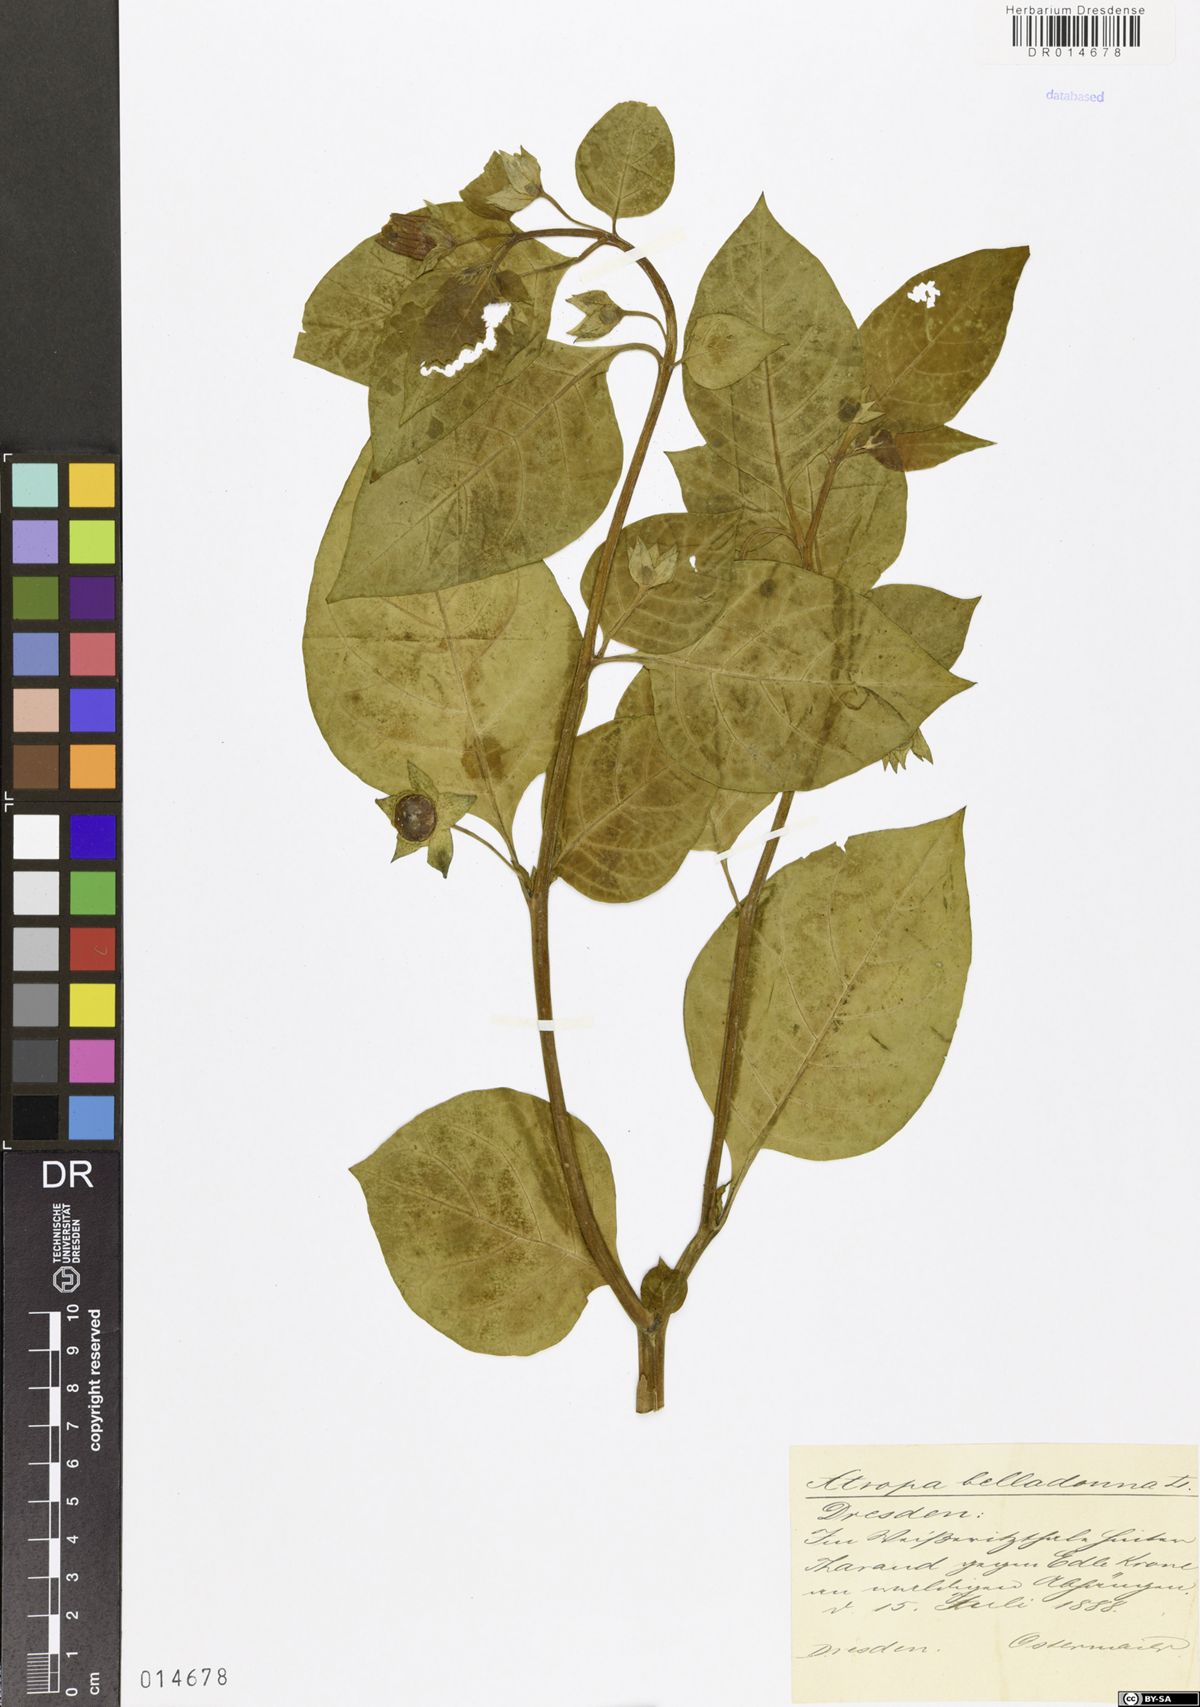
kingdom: Plantae
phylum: Tracheophyta
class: Magnoliopsida
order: Solanales
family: Solanaceae
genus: Atropa
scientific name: Atropa belladonna
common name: Deadly nightshade
